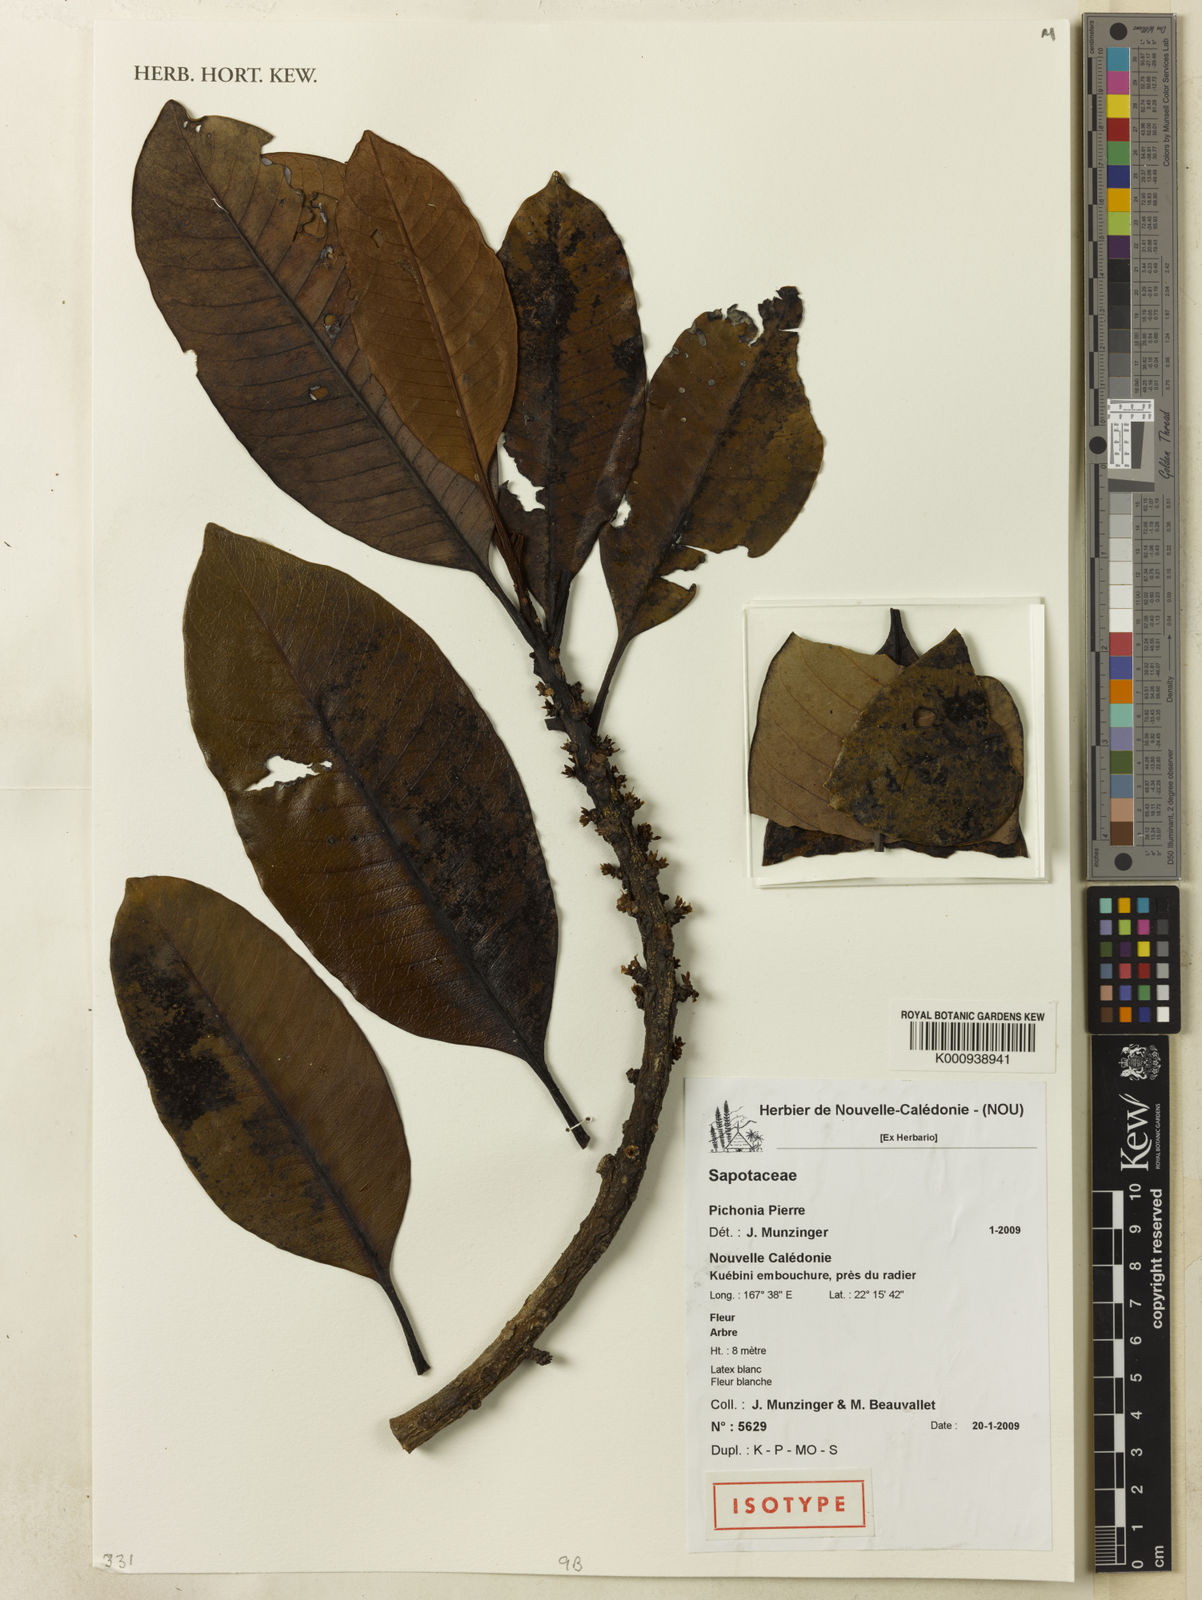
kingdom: Plantae
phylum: Tracheophyta
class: Magnoliopsida
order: Ericales
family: Sapotaceae
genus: Pycnandra
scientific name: Pycnandra confusa
